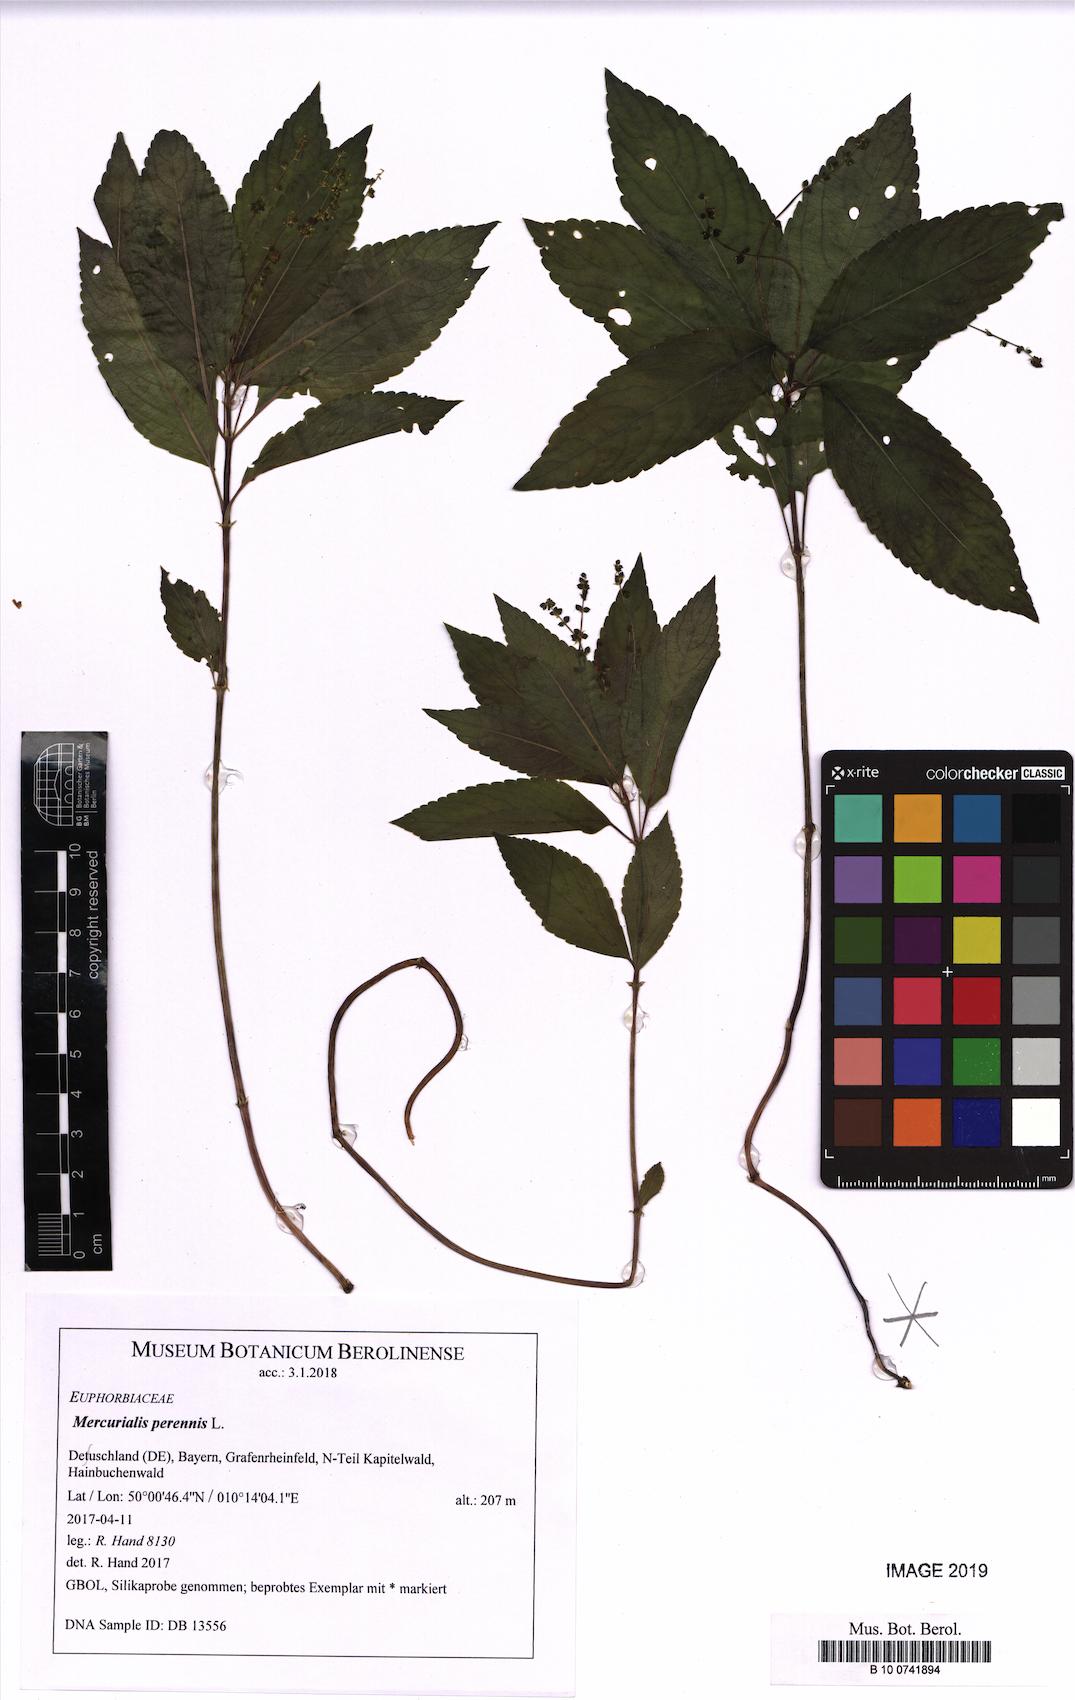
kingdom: Plantae
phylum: Tracheophyta
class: Magnoliopsida
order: Malpighiales
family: Euphorbiaceae
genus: Mercurialis
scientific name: Mercurialis perennis
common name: Dog mercury
